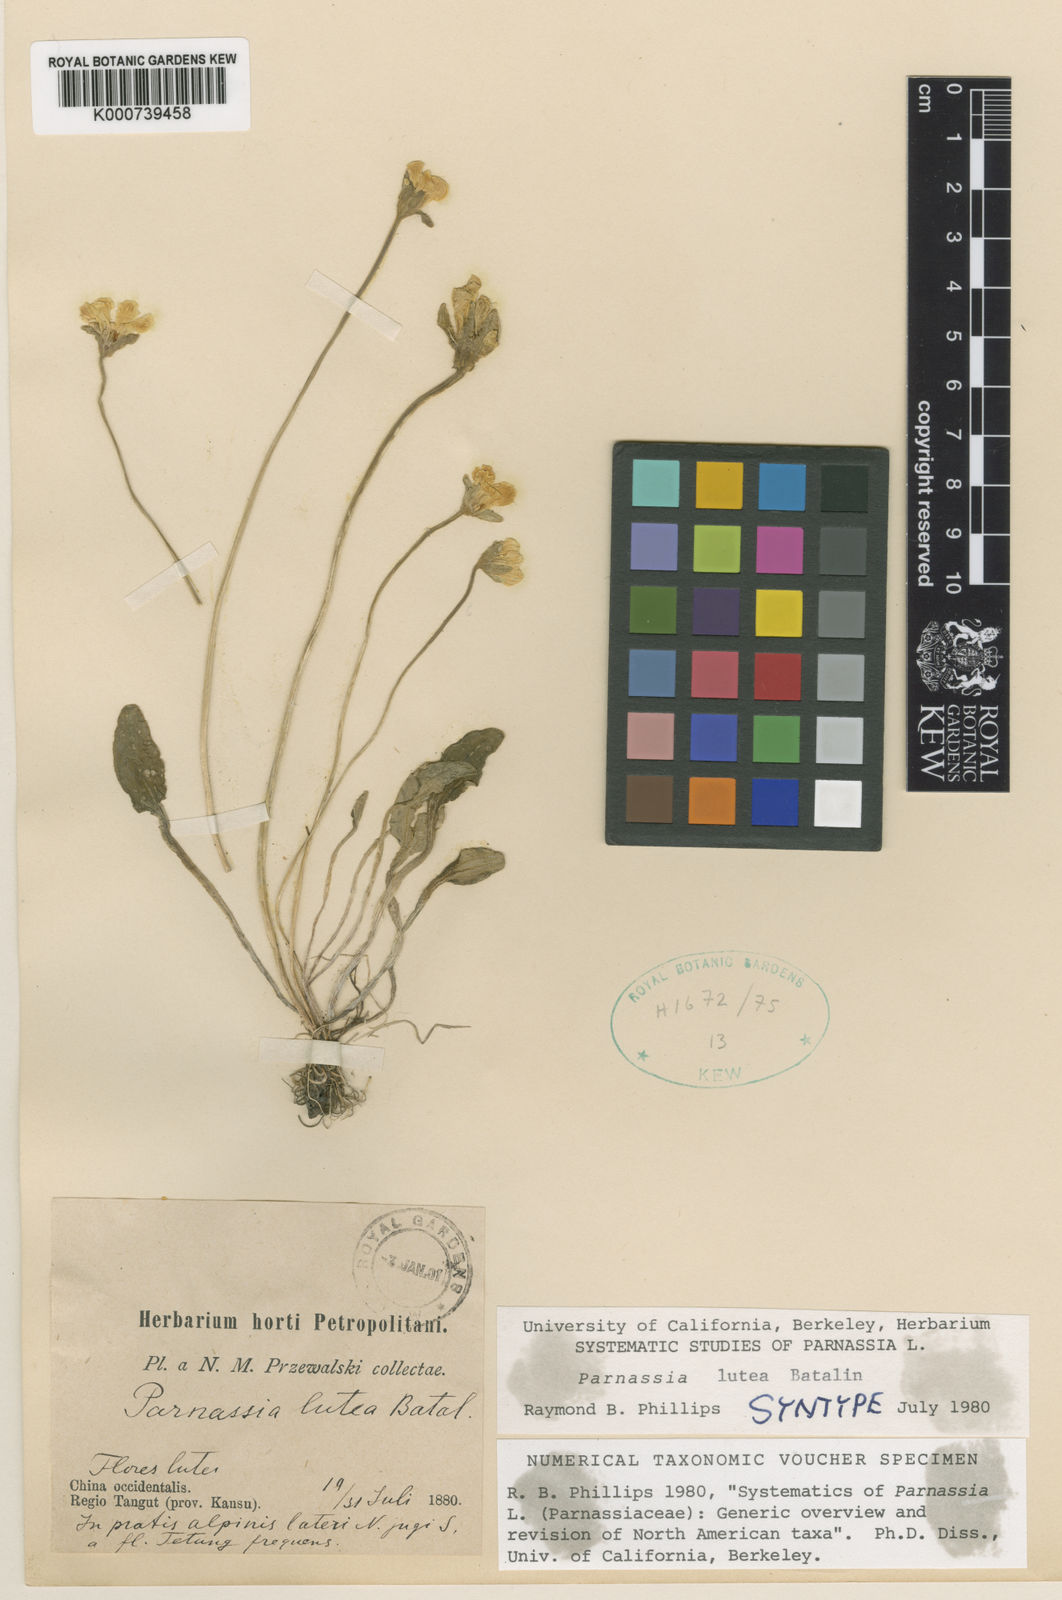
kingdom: Plantae
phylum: Tracheophyta
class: Magnoliopsida
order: Celastrales
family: Parnassiaceae
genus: Parnassia
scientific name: Parnassia lutea
